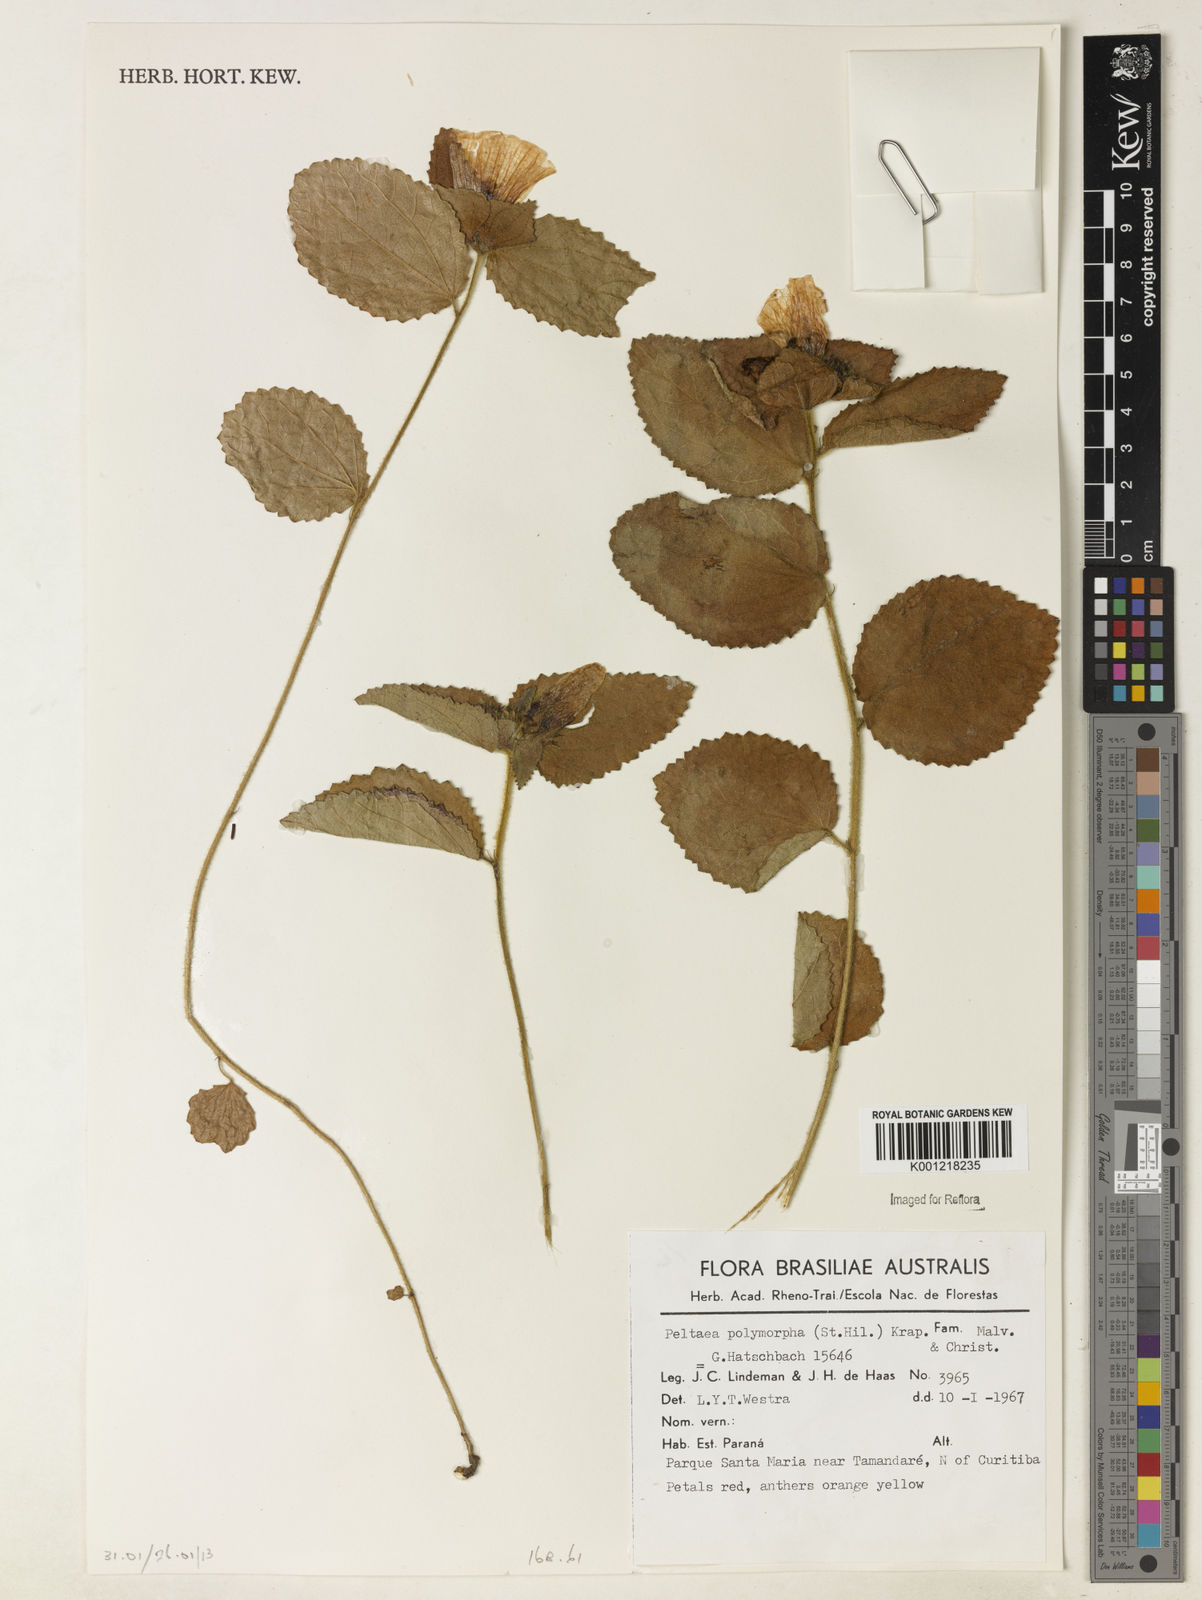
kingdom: Plantae
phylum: Tracheophyta
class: Magnoliopsida
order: Malvales
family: Malvaceae
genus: Peltaea
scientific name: Peltaea
